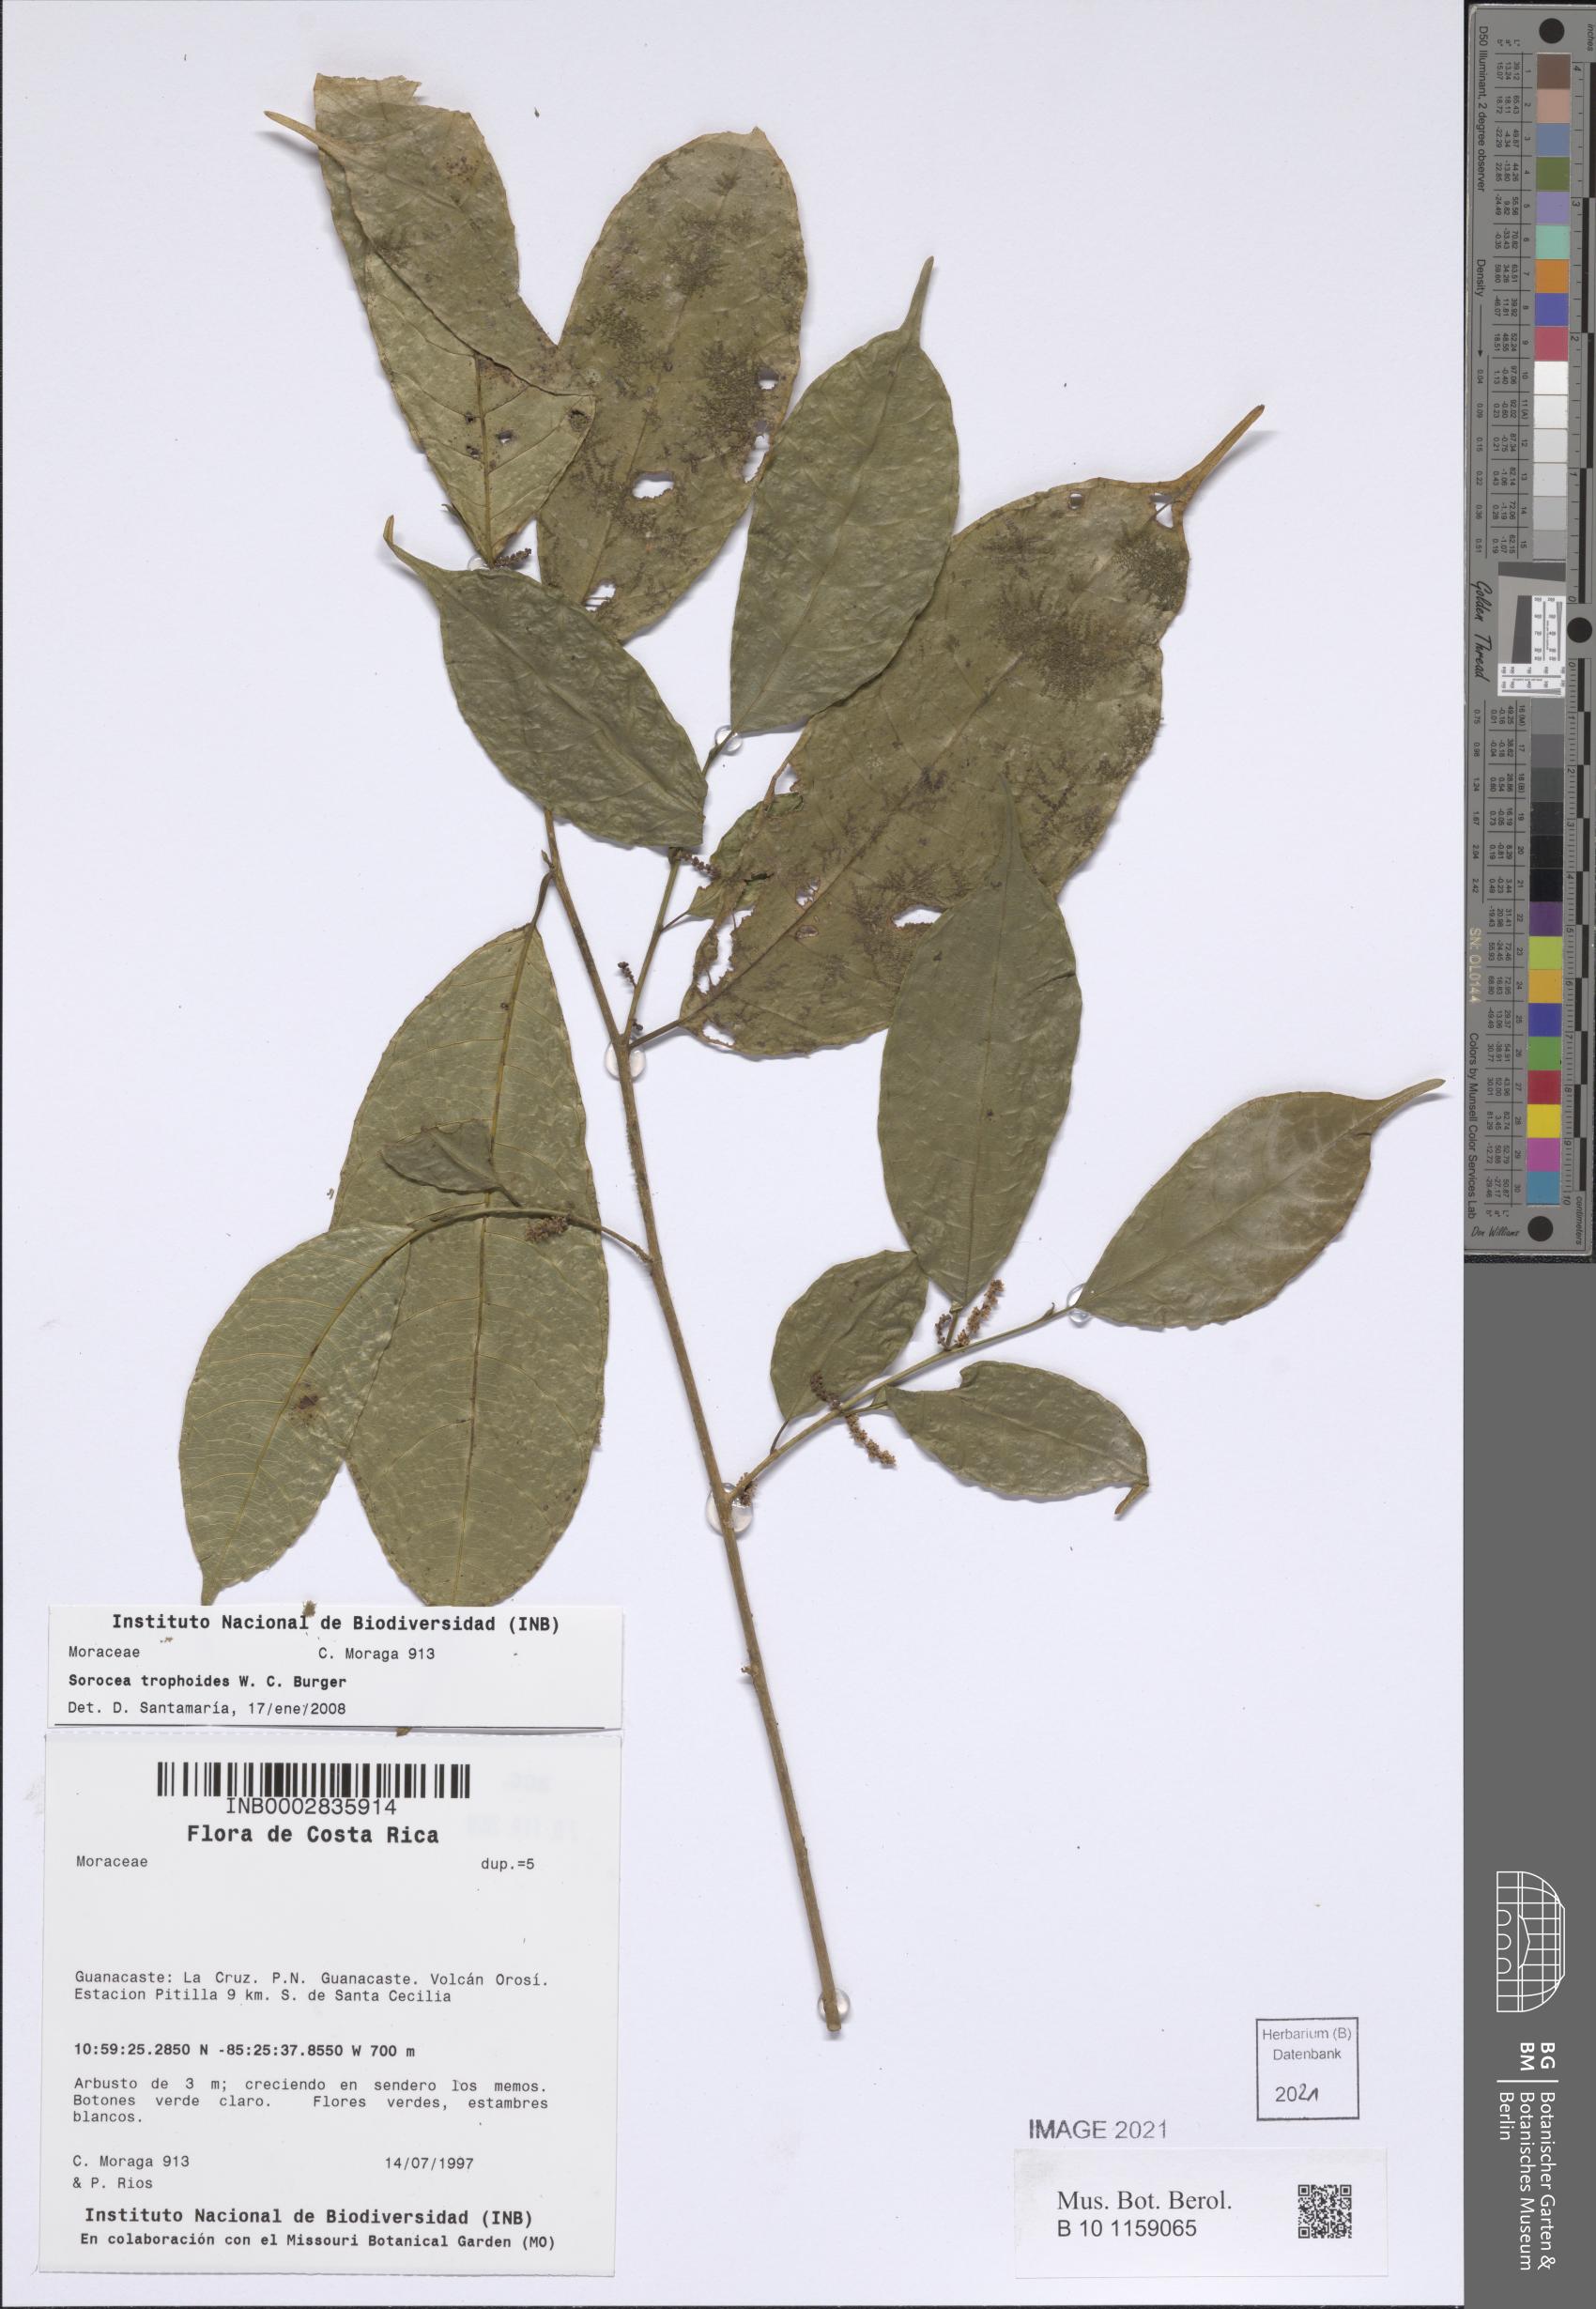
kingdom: Plantae
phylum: Tracheophyta
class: Magnoliopsida
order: Rosales
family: Moraceae
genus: Sorocea
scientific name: Sorocea trophoides
